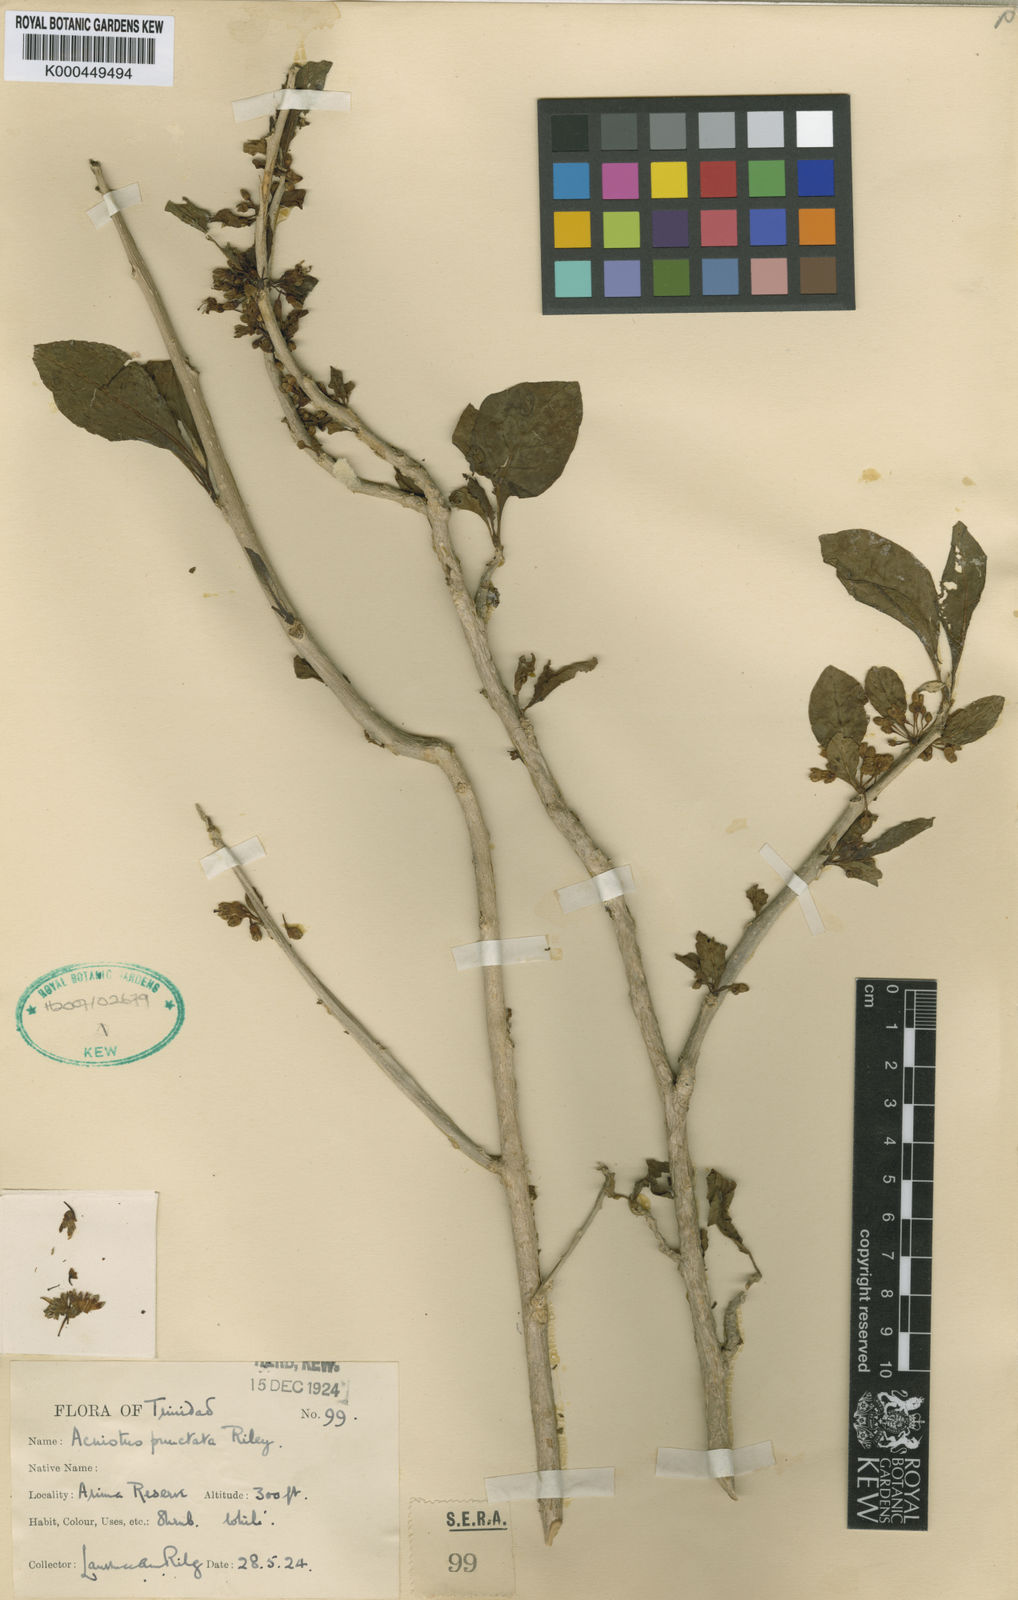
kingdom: Plantae
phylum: Tracheophyta
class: Magnoliopsida
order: Solanales
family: Solanaceae
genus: Iochroma
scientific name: Iochroma arborescens
